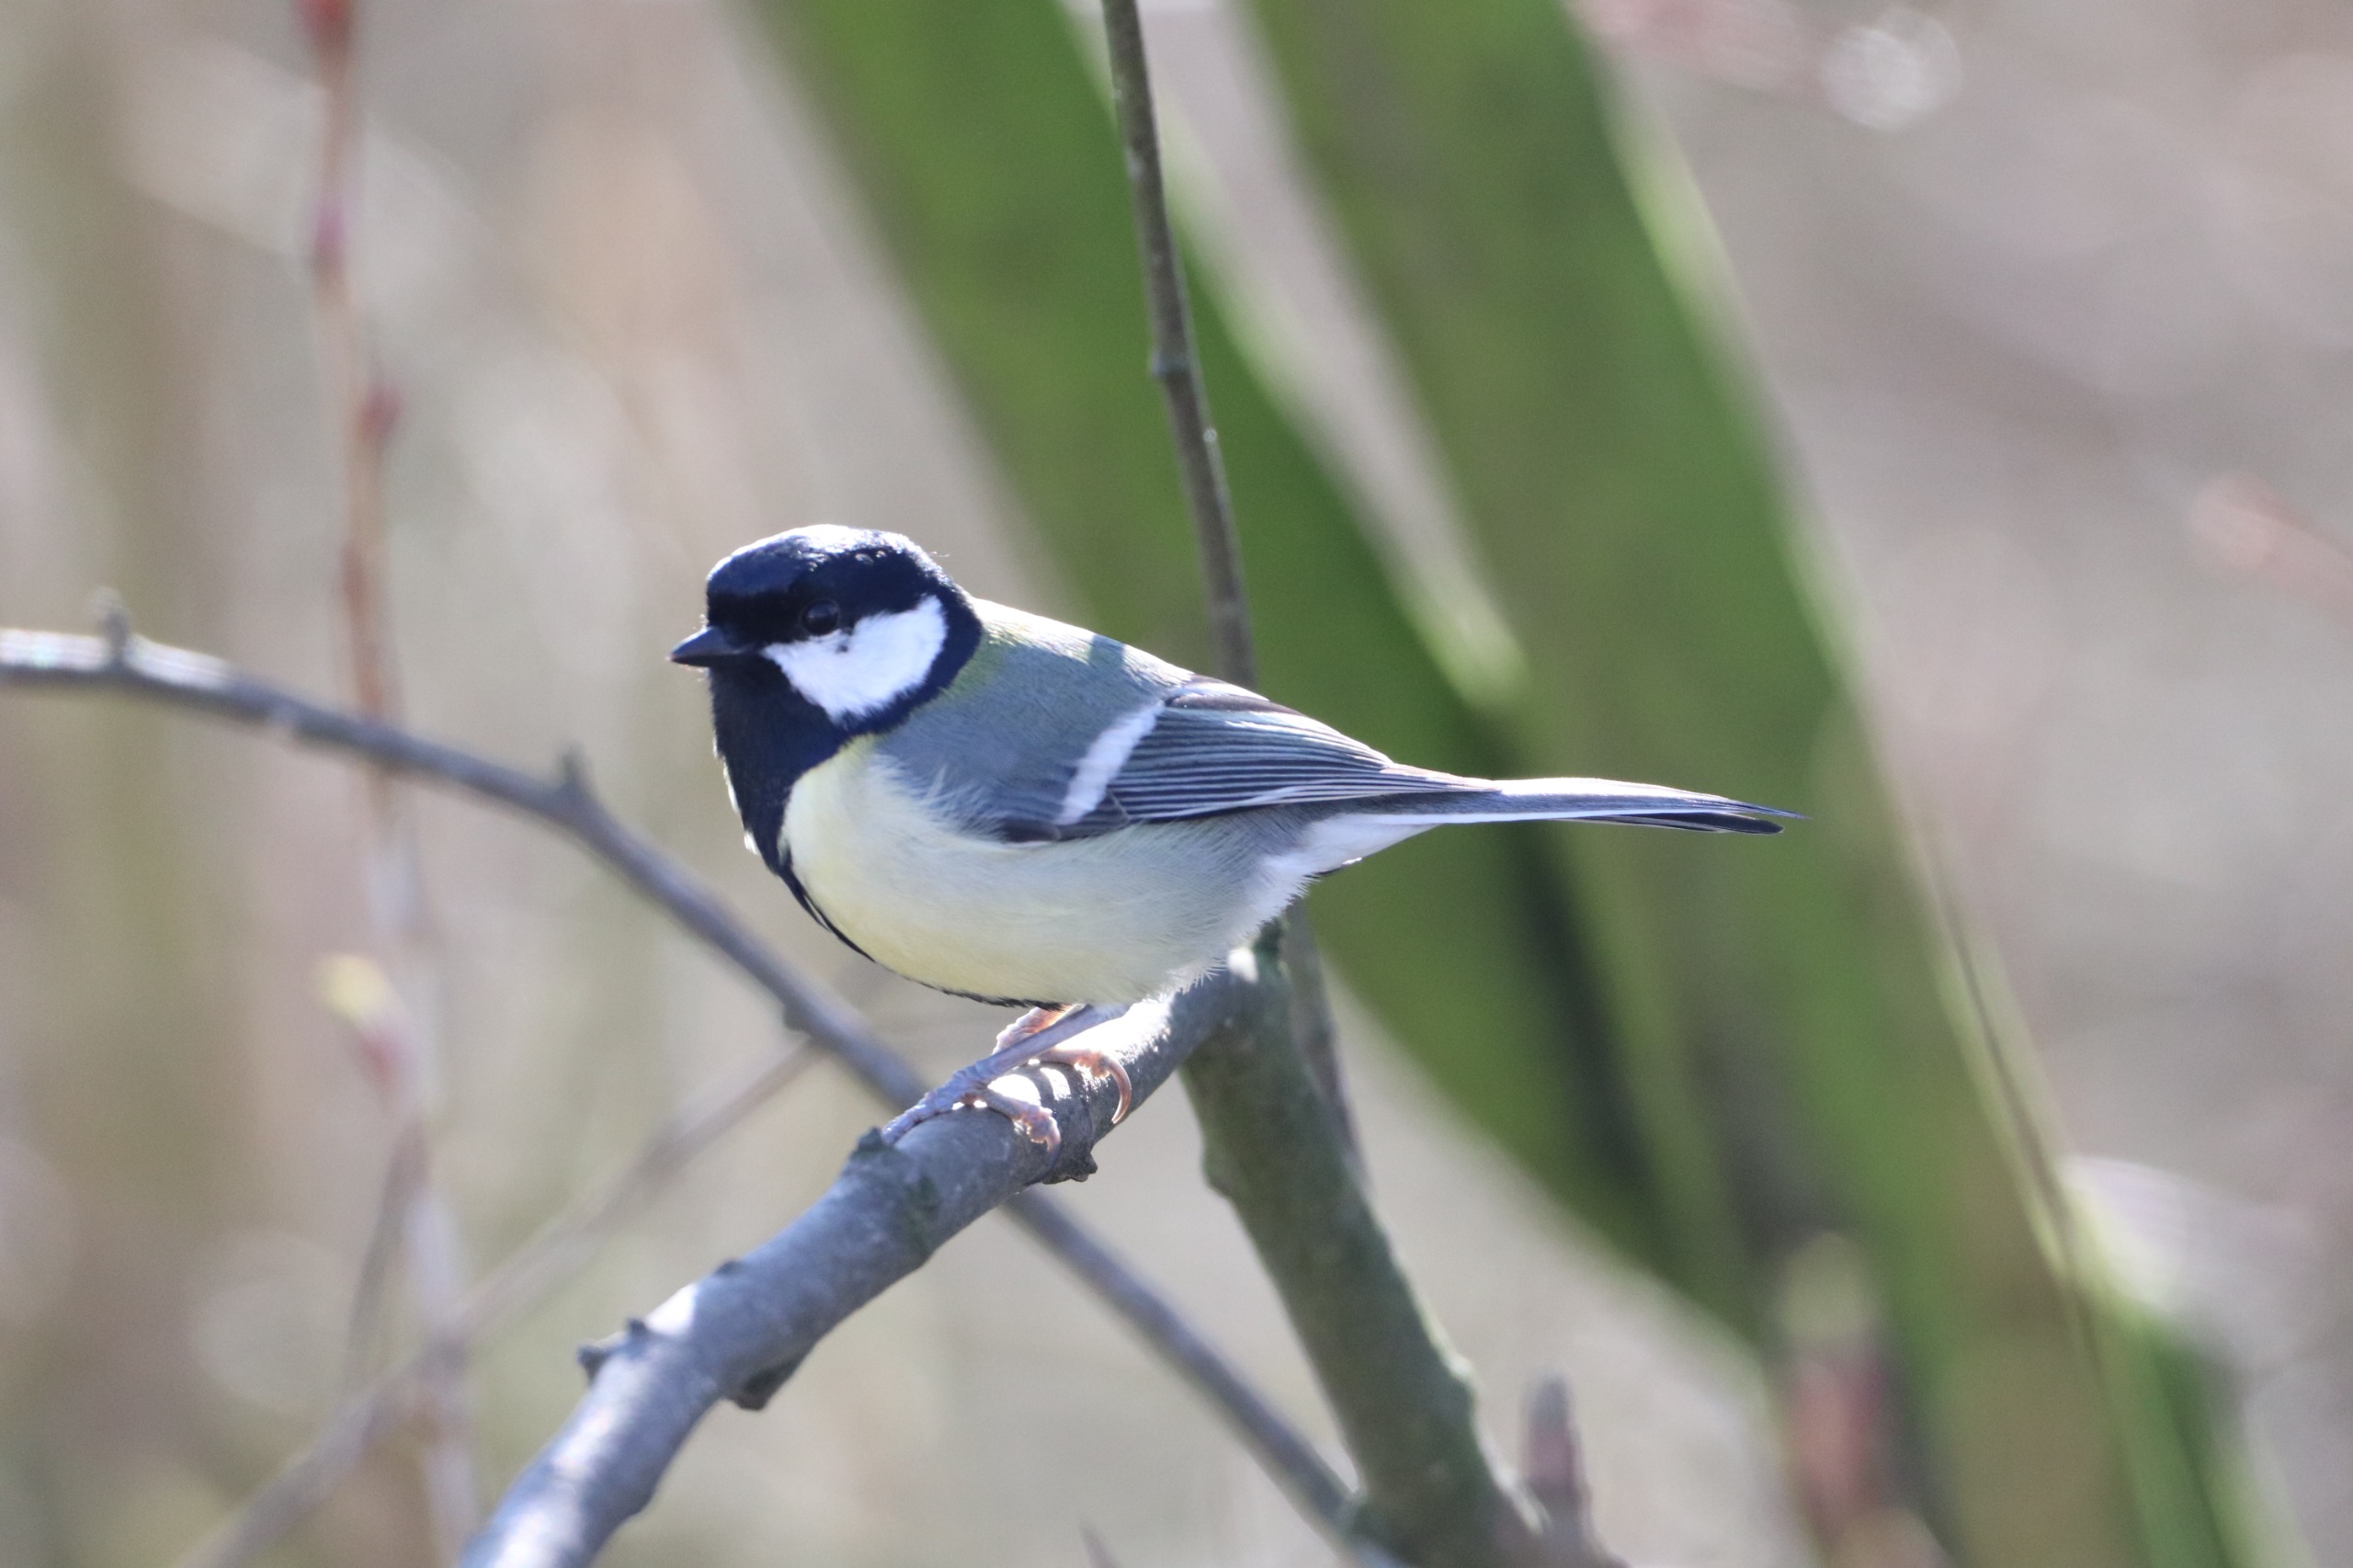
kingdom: Animalia
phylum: Chordata
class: Aves
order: Passeriformes
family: Paridae
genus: Parus
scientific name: Parus major
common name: Musvit
